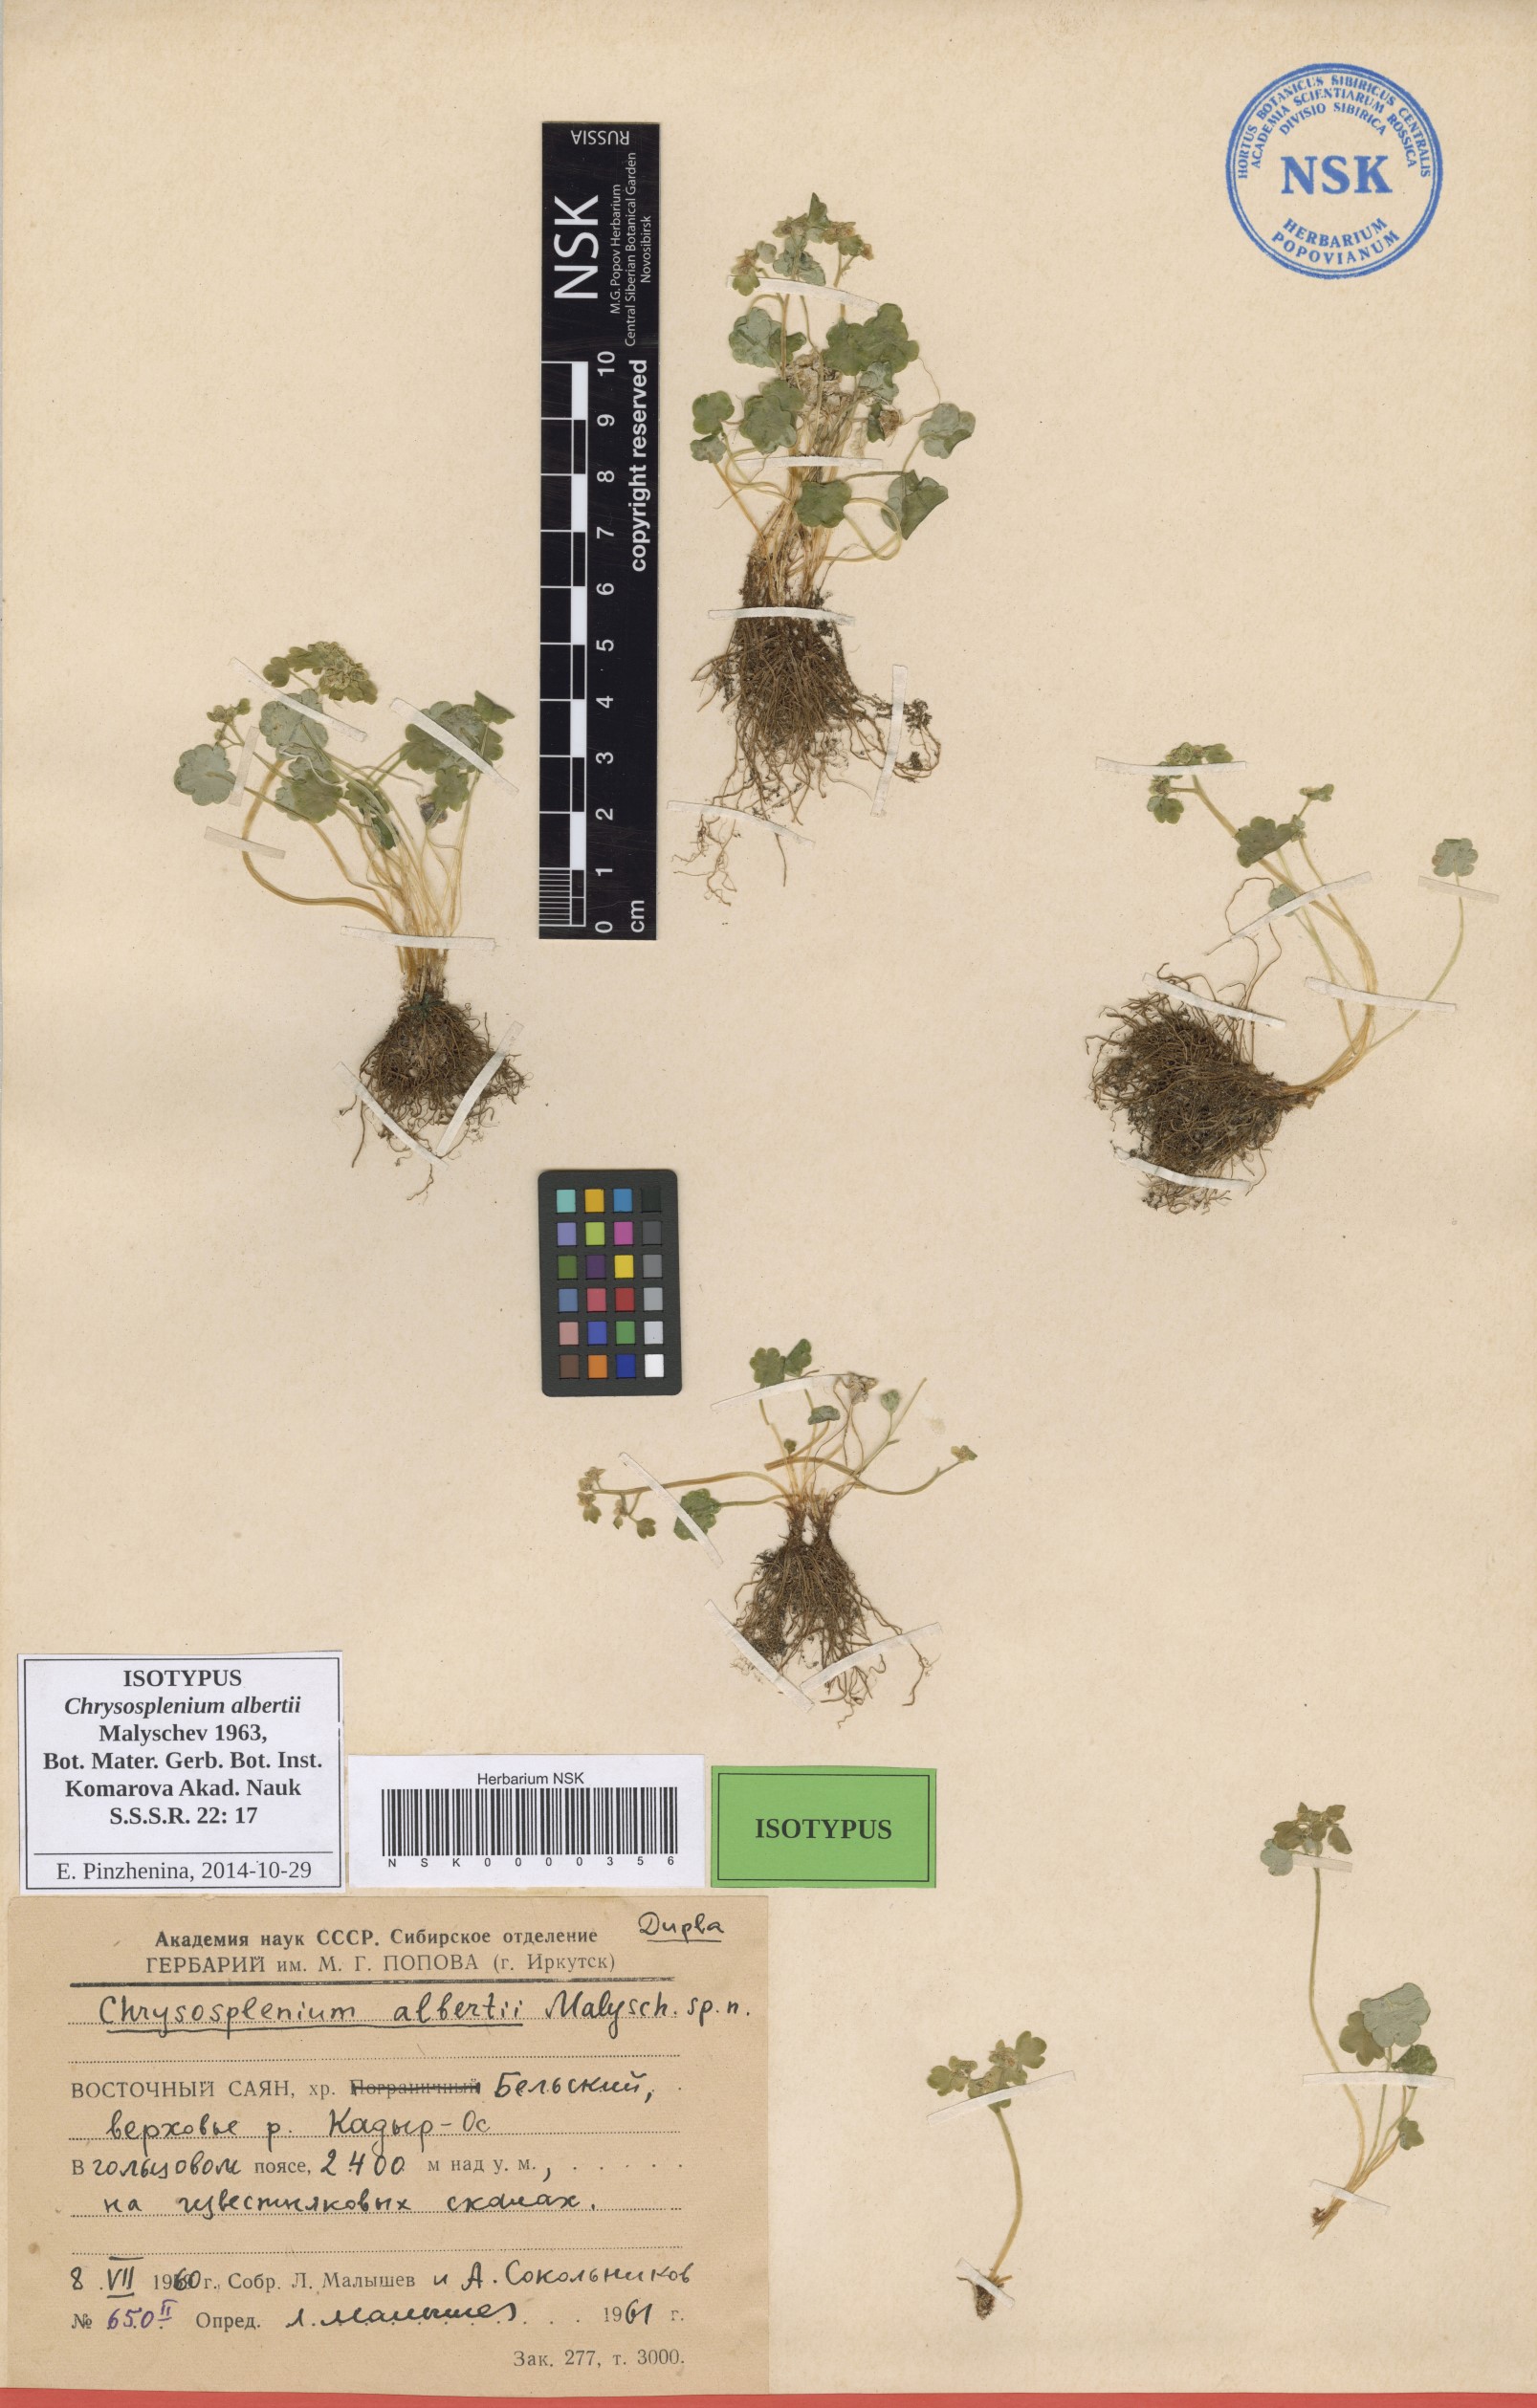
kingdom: Plantae
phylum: Tracheophyta
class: Magnoliopsida
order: Saxifragales
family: Saxifragaceae
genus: Chrysosplenium
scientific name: Chrysosplenium albertii
